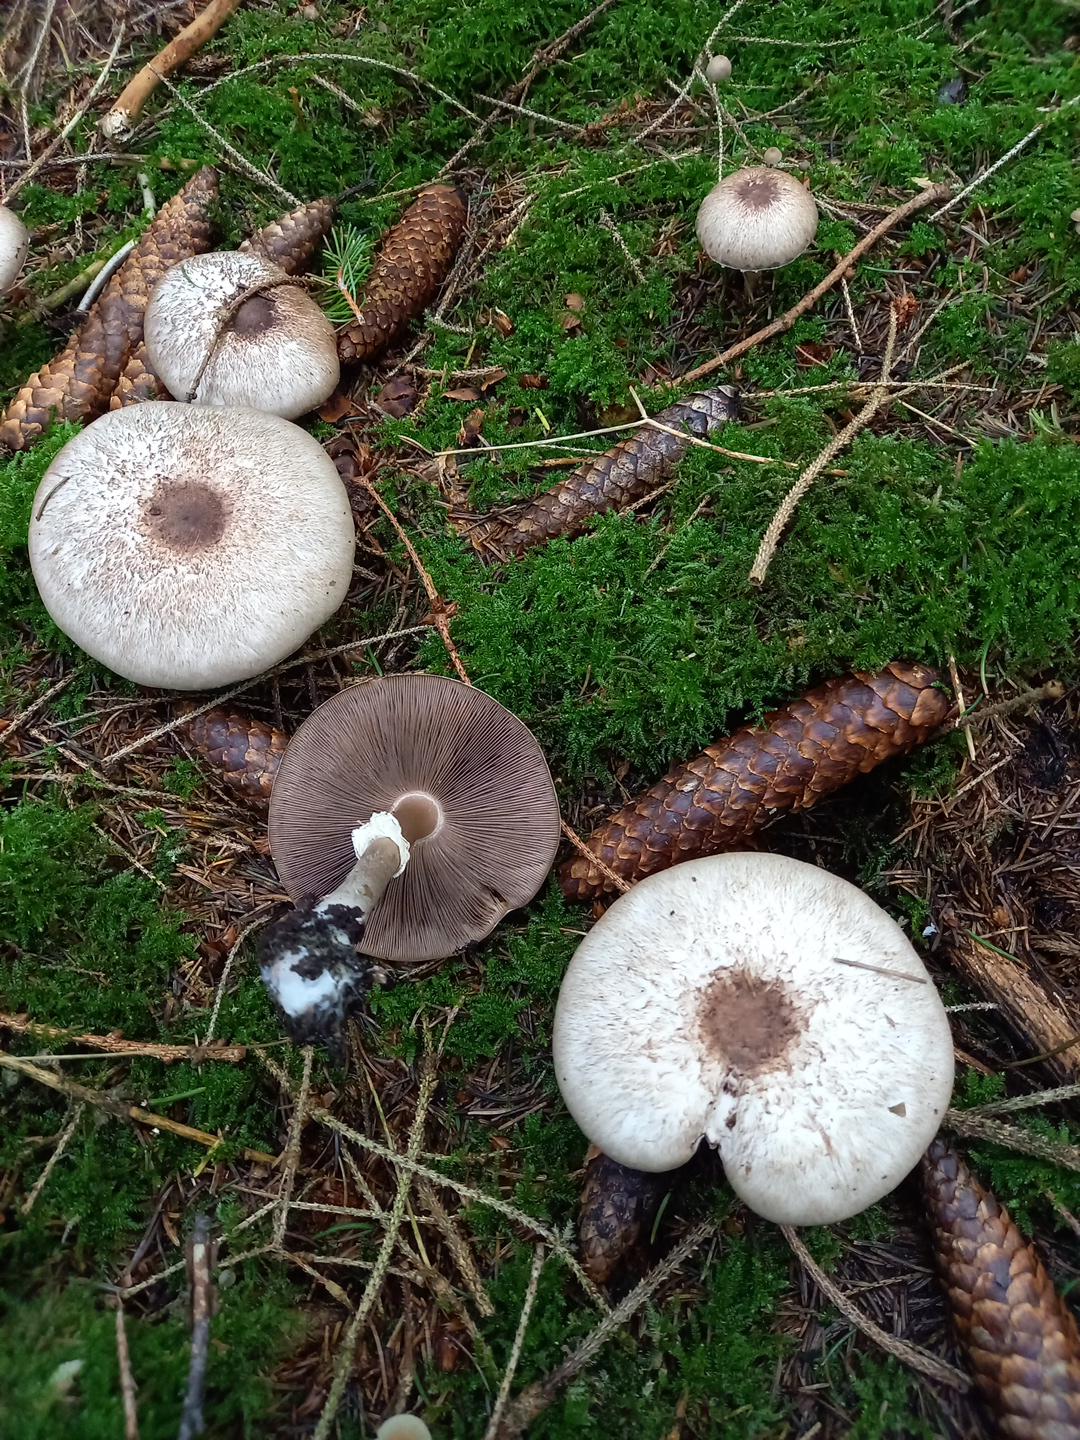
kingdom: Fungi
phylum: Basidiomycota
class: Agaricomycetes
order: Agaricales
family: Agaricaceae
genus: Agaricus
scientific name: Agaricus impudicus
